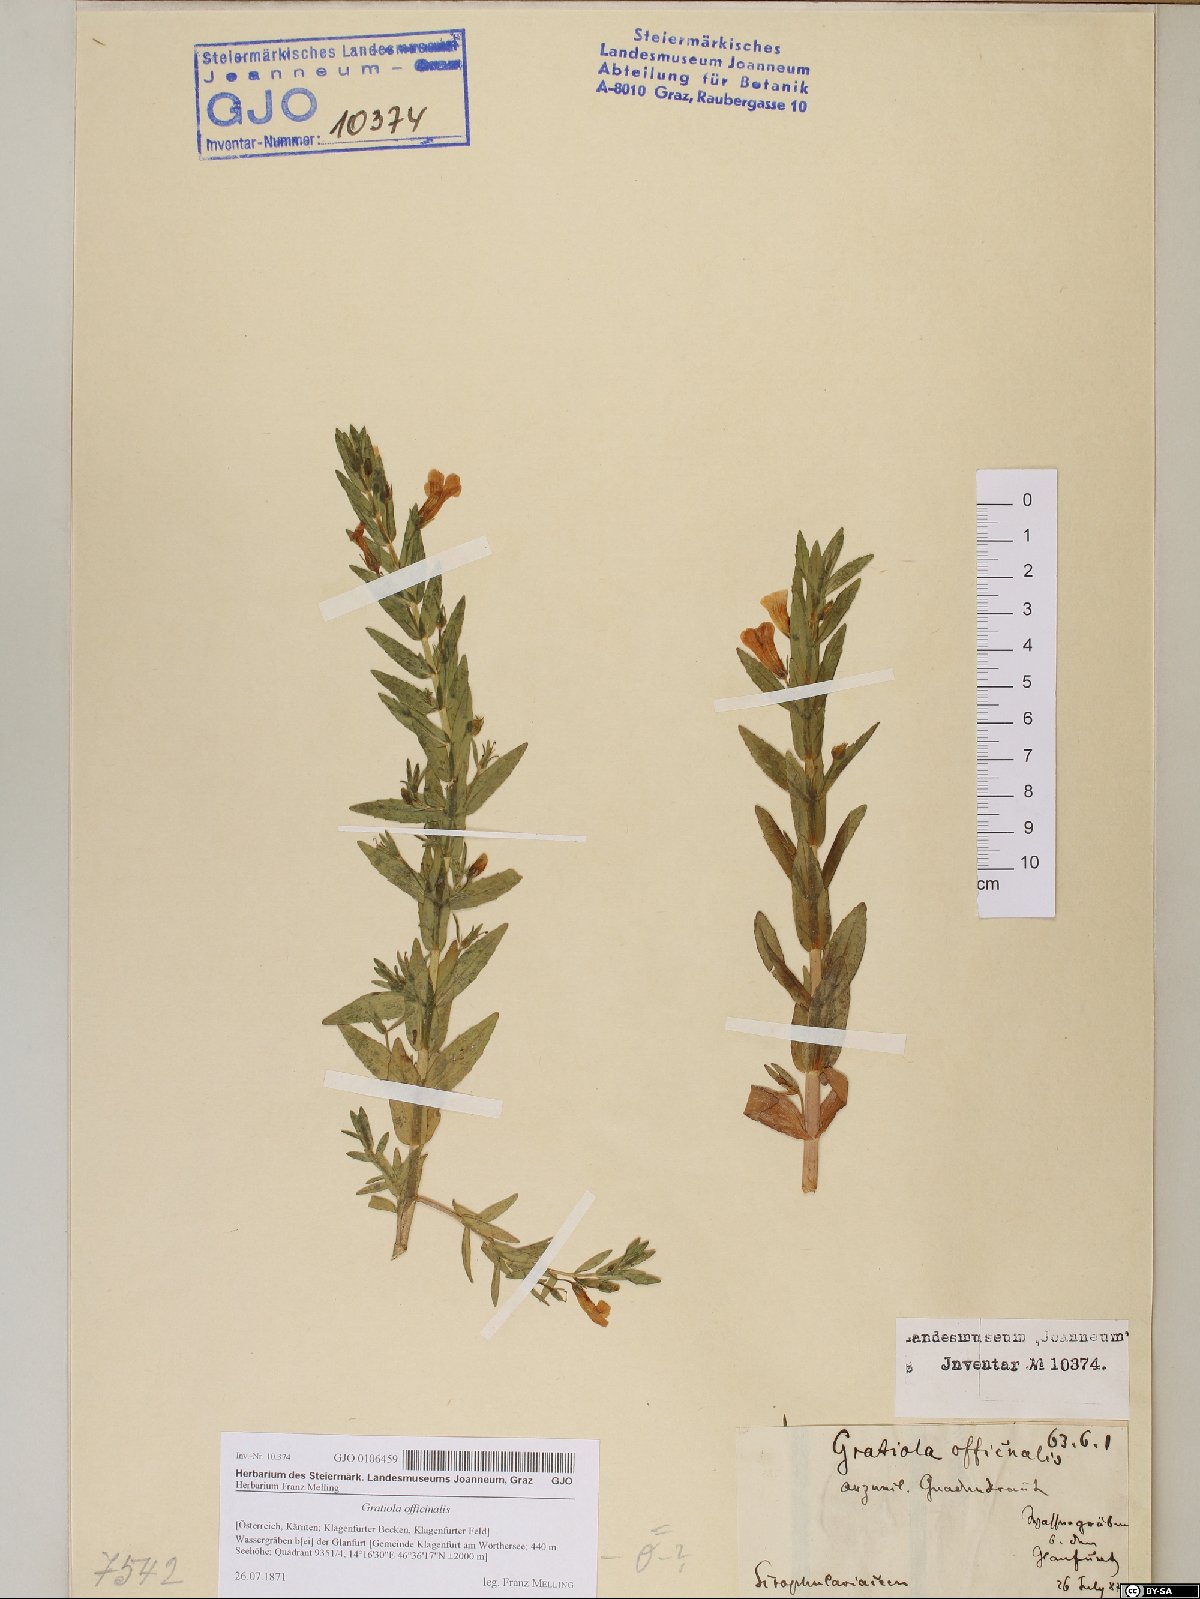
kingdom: Plantae
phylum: Tracheophyta
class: Magnoliopsida
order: Lamiales
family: Plantaginaceae
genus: Gratiola
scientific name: Gratiola officinalis
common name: Gratiola
